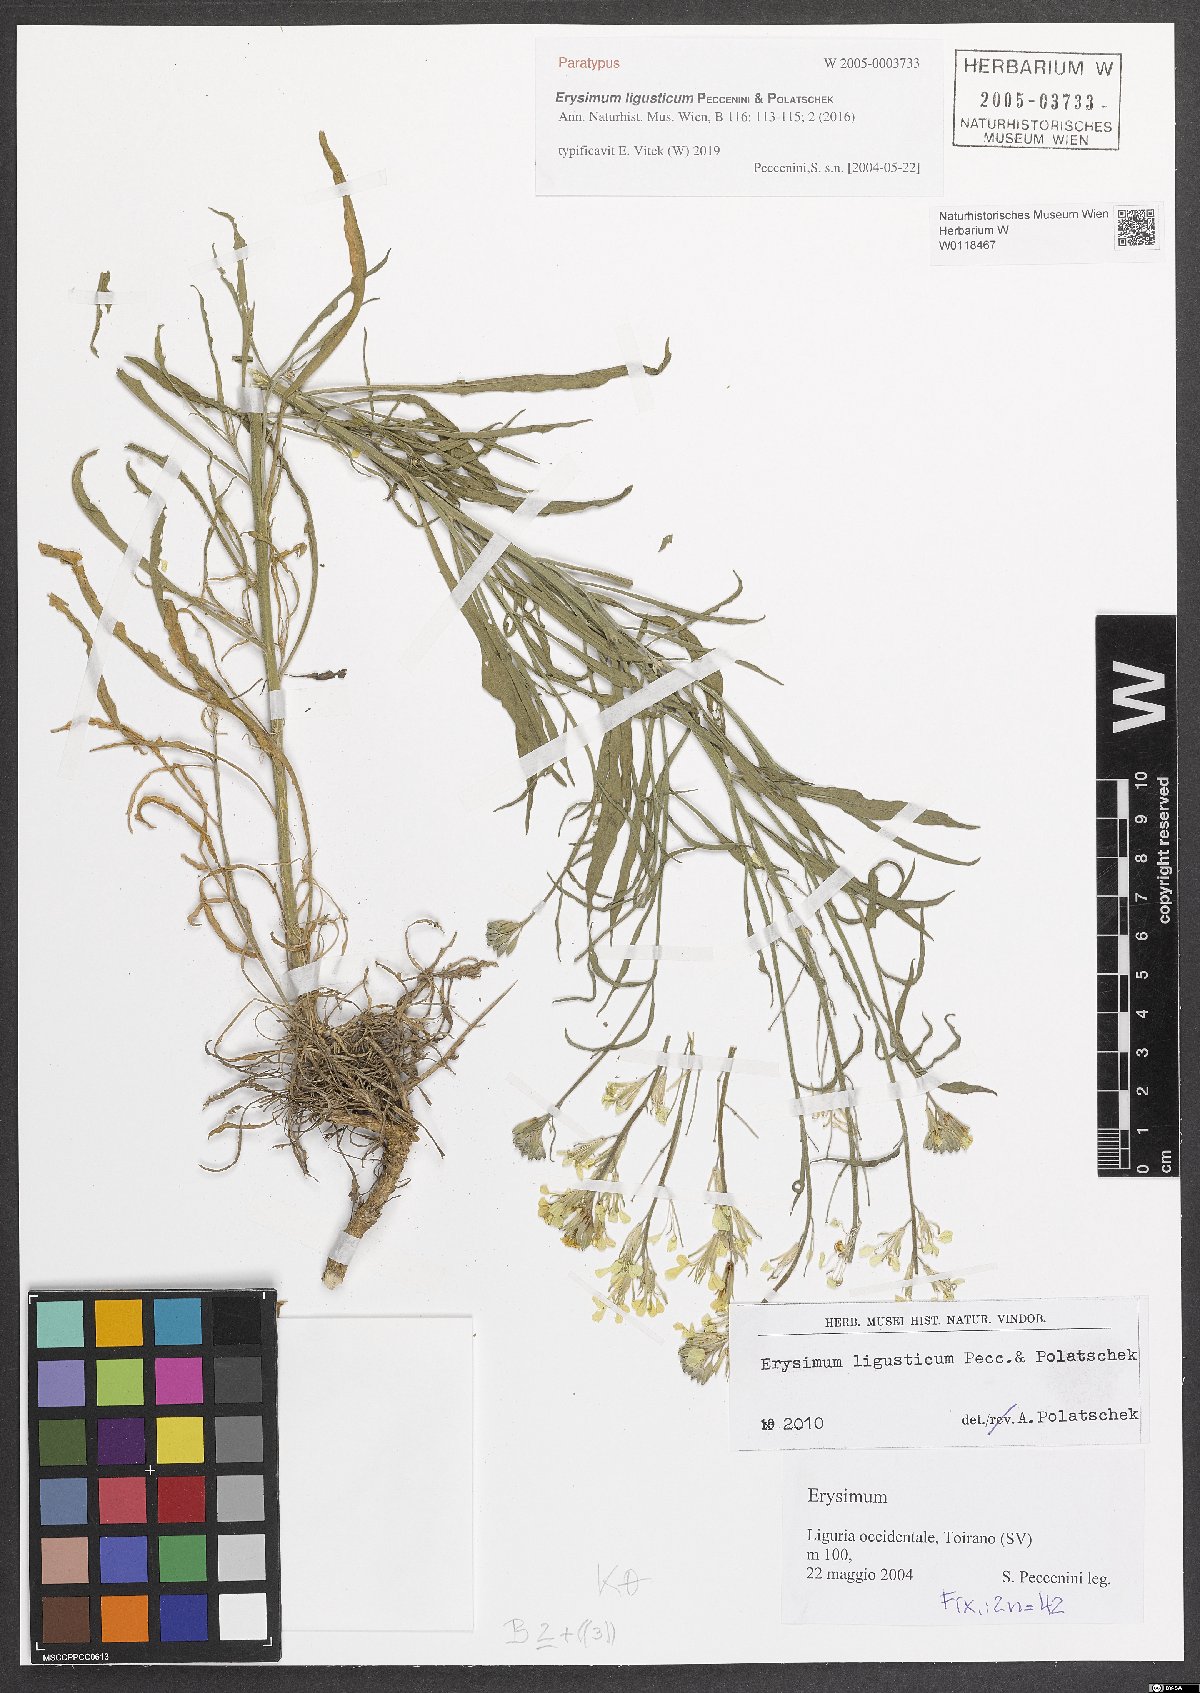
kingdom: Plantae
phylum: Tracheophyta
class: Magnoliopsida
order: Brassicales
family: Brassicaceae
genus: Erysimum
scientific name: Erysimum ligusticum
